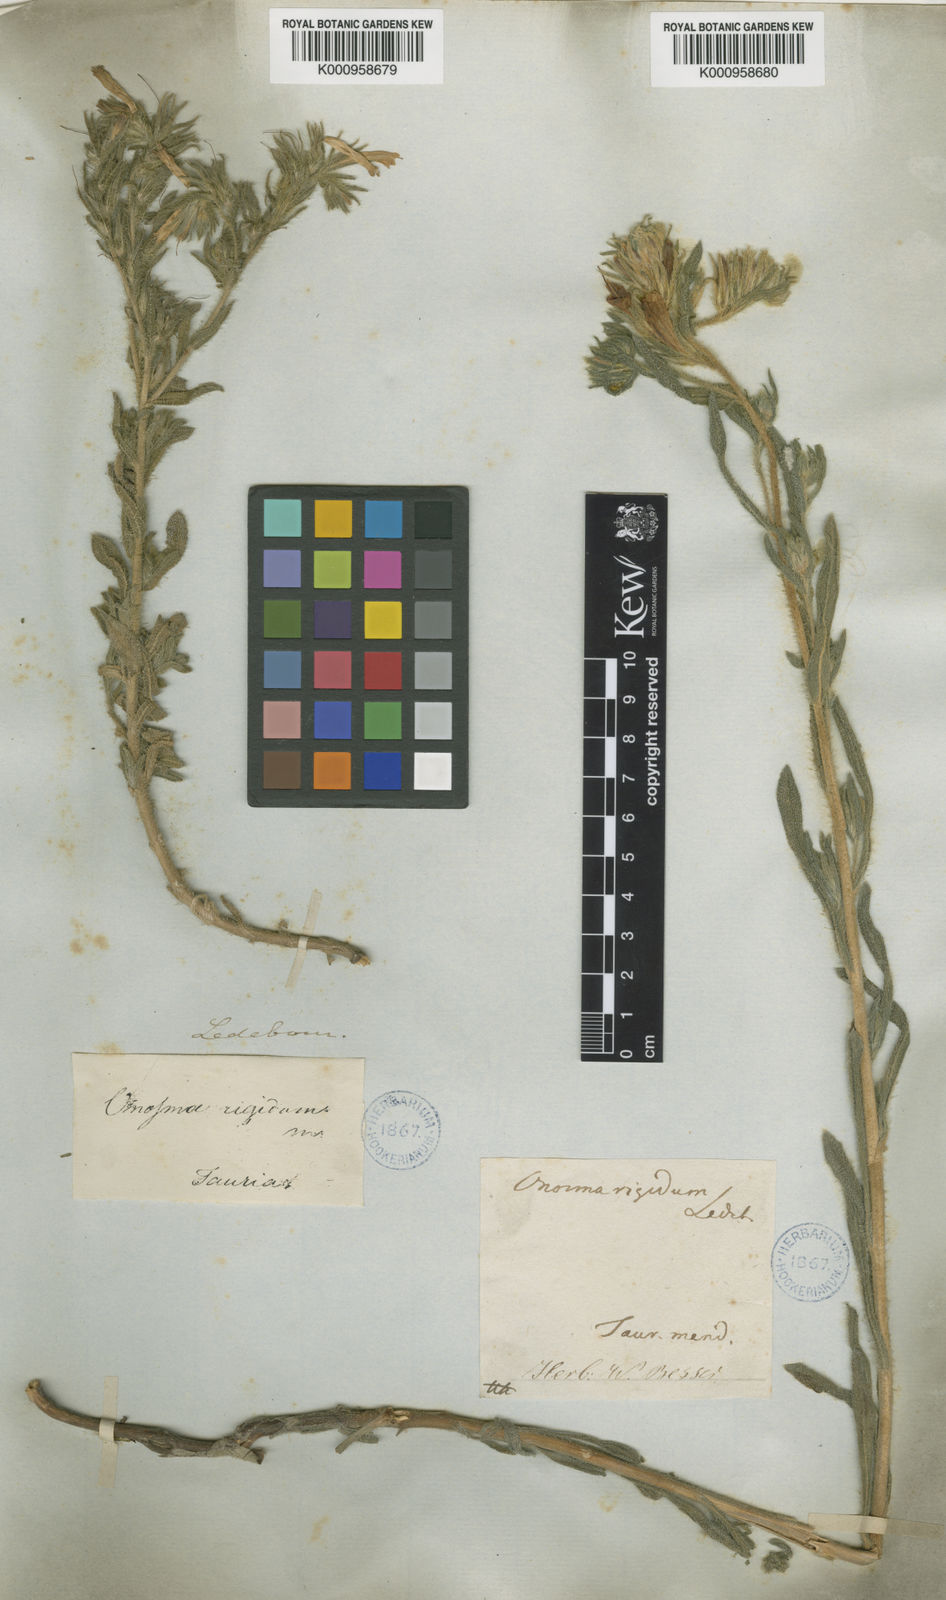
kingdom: Plantae
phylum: Tracheophyta
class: Magnoliopsida
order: Boraginales
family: Boraginaceae
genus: Onosma
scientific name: Onosma montana
